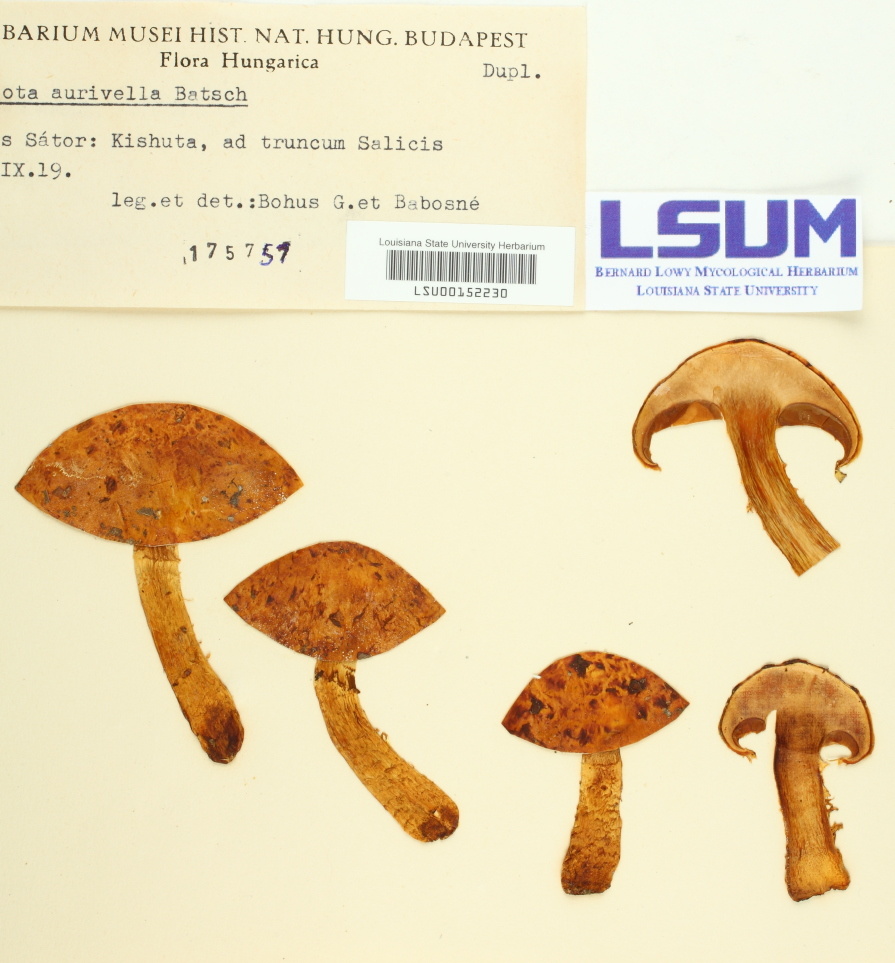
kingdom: Fungi
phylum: Basidiomycota
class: Agaricomycetes
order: Agaricales
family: Strophariaceae
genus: Pholiota
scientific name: Pholiota aurivella
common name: Golden scalycap
